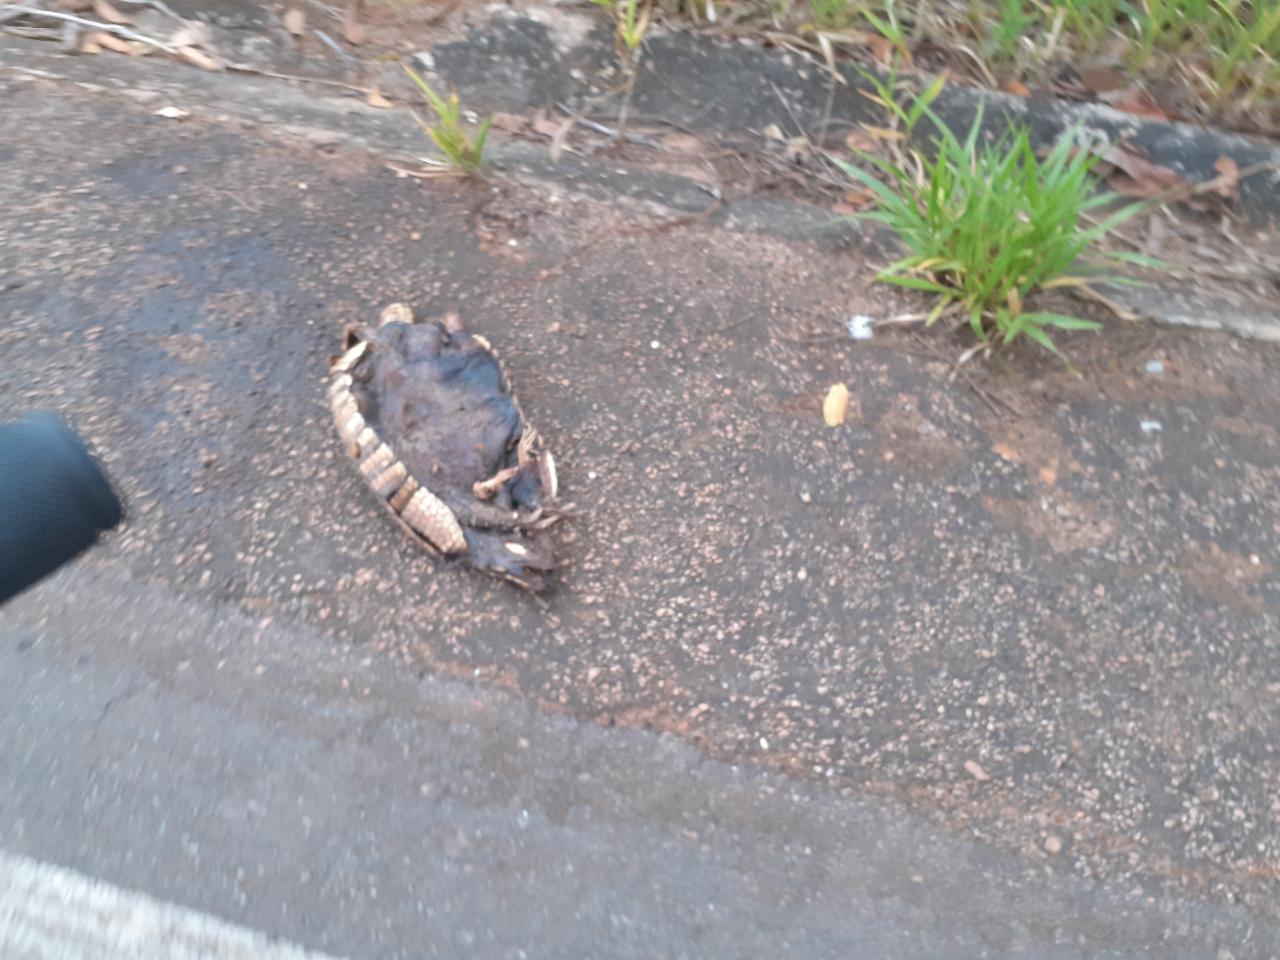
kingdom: Animalia
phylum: Chordata
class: Mammalia
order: Cingulata
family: Dasypodidae
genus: Dasypus
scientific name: Dasypus novemcinctus
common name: Nine-banded armadillo
